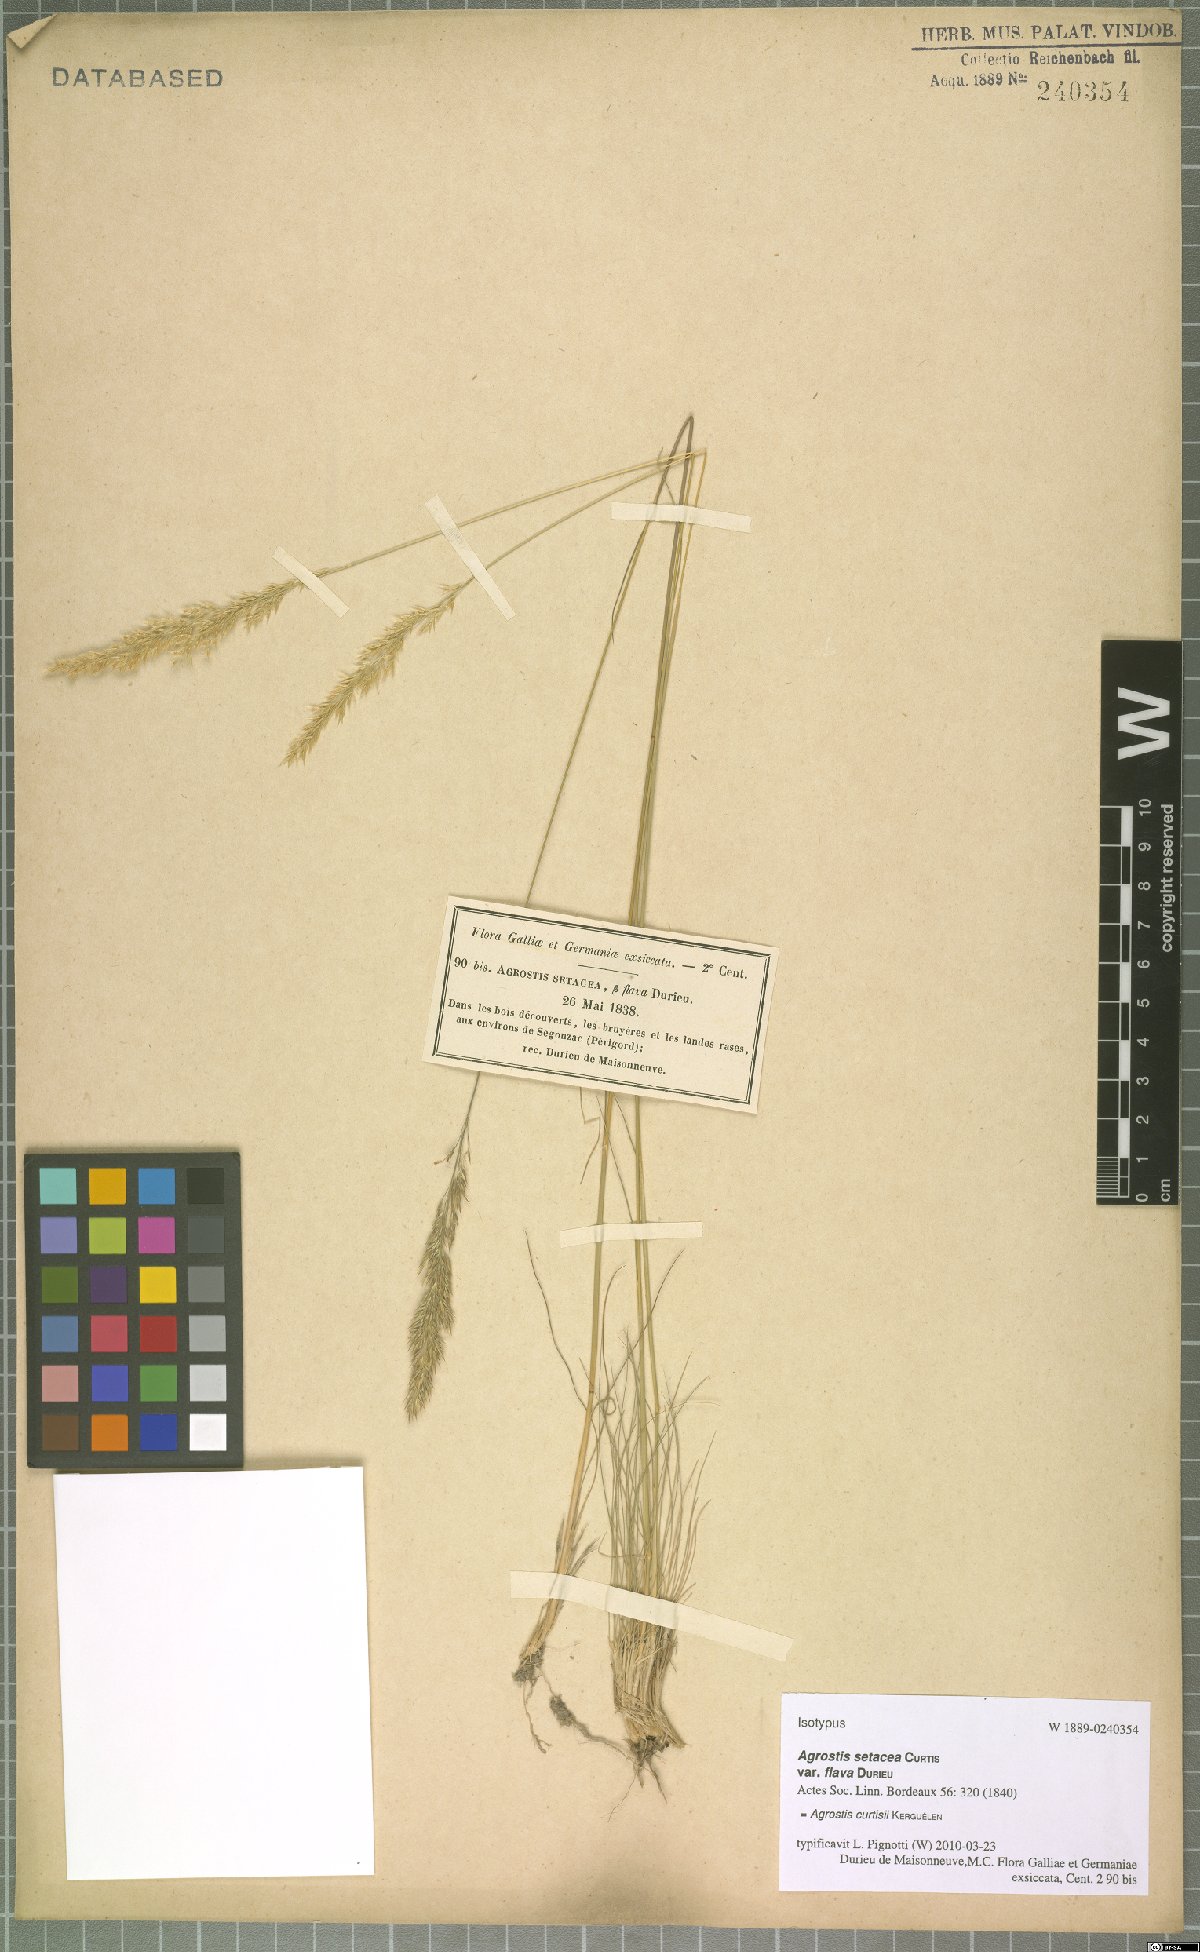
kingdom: Plantae
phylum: Tracheophyta
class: Liliopsida
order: Poales
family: Poaceae
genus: Alpagrostis
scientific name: Alpagrostis setacea
